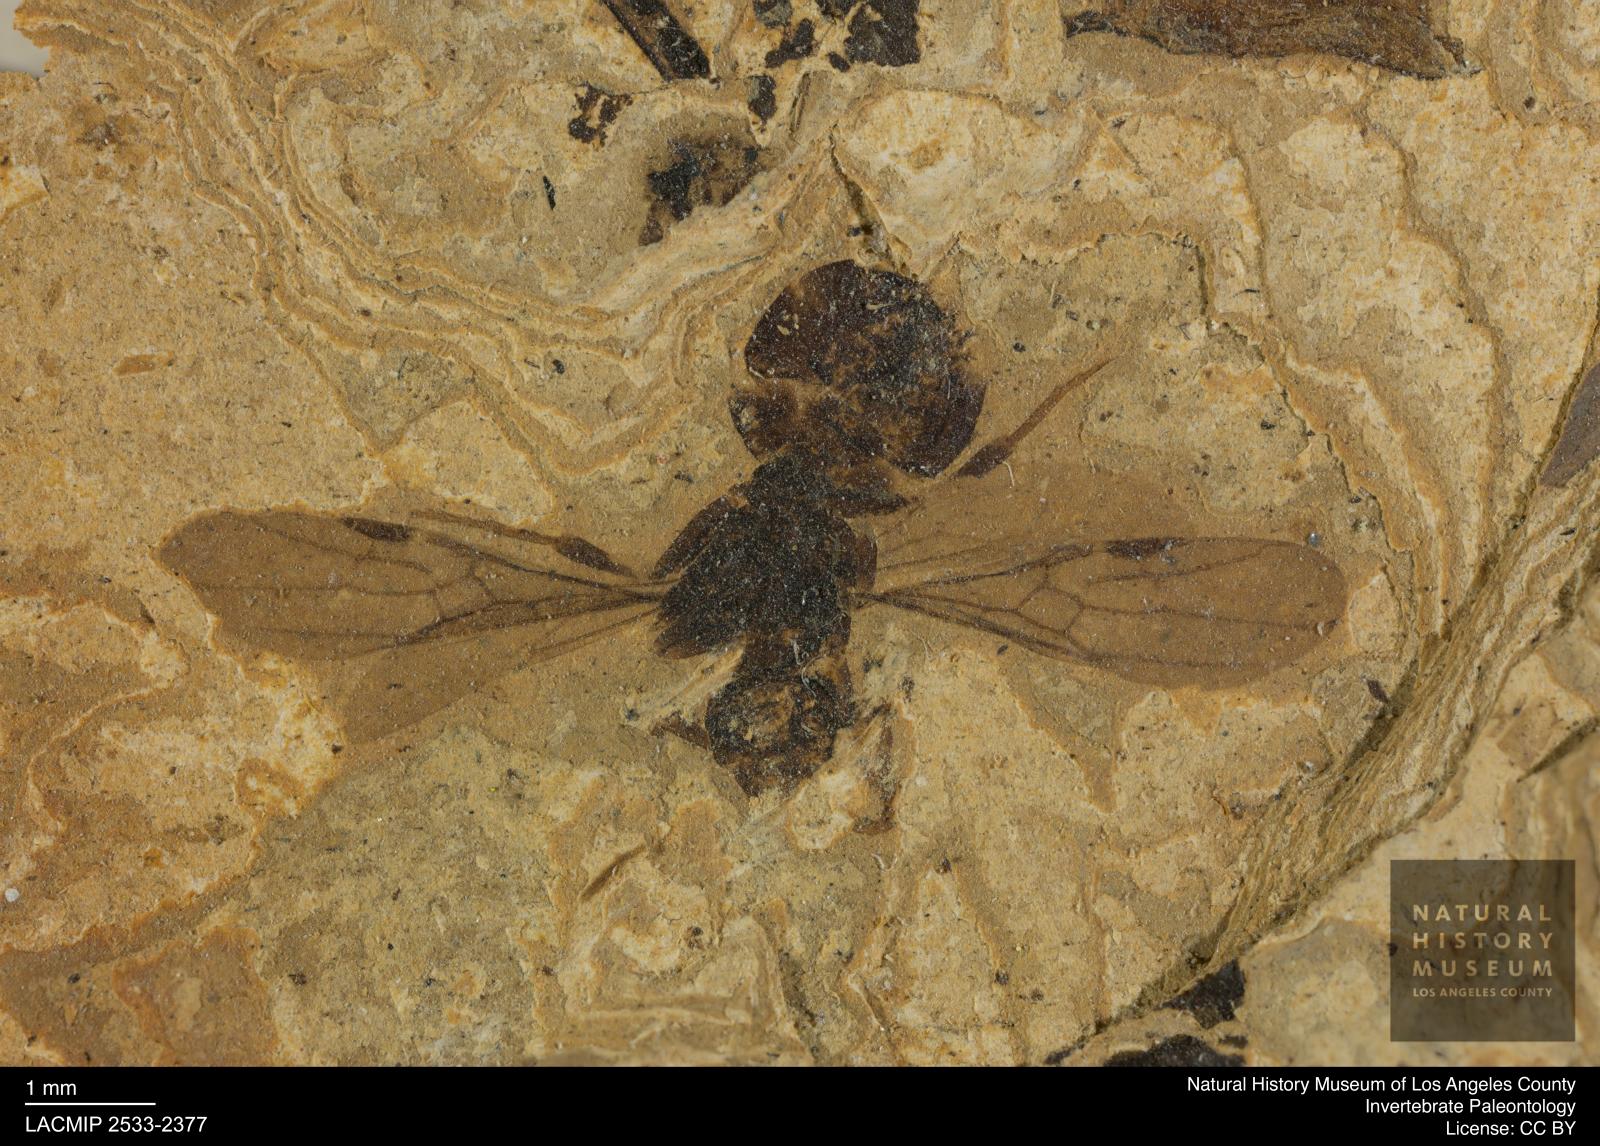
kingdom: Animalia
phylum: Arthropoda
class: Insecta
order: Hymenoptera
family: Formicidae
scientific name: Formicidae
